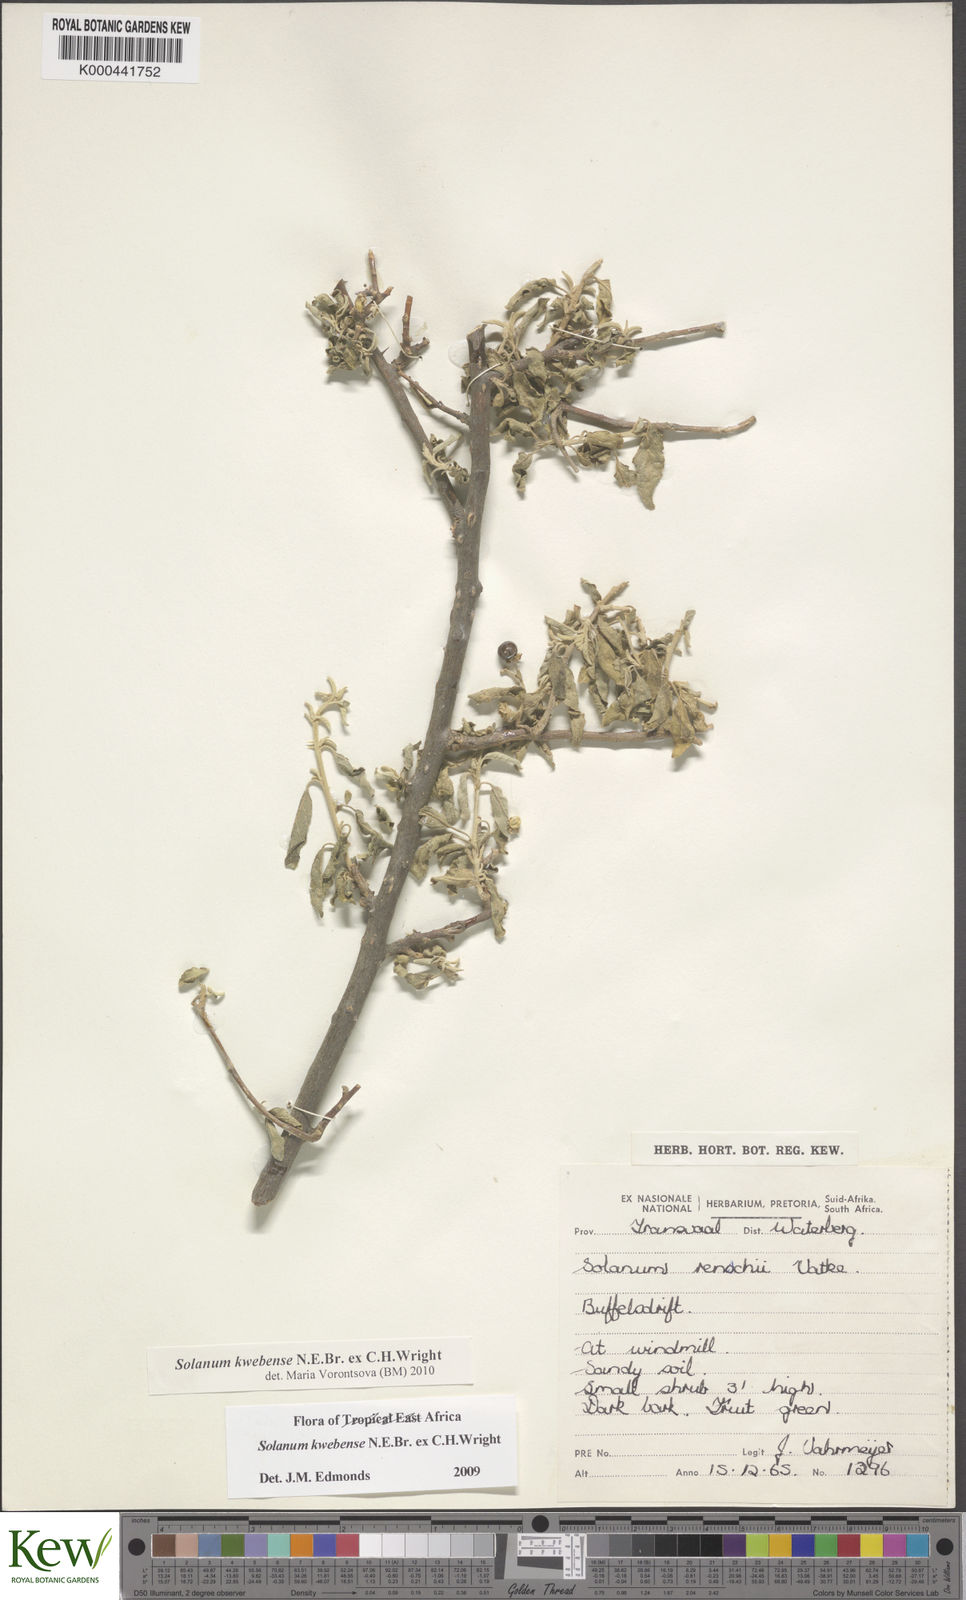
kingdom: Plantae
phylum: Tracheophyta
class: Magnoliopsida
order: Solanales
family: Solanaceae
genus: Solanum
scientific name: Solanum tettense
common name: Mozambique bitter apple
